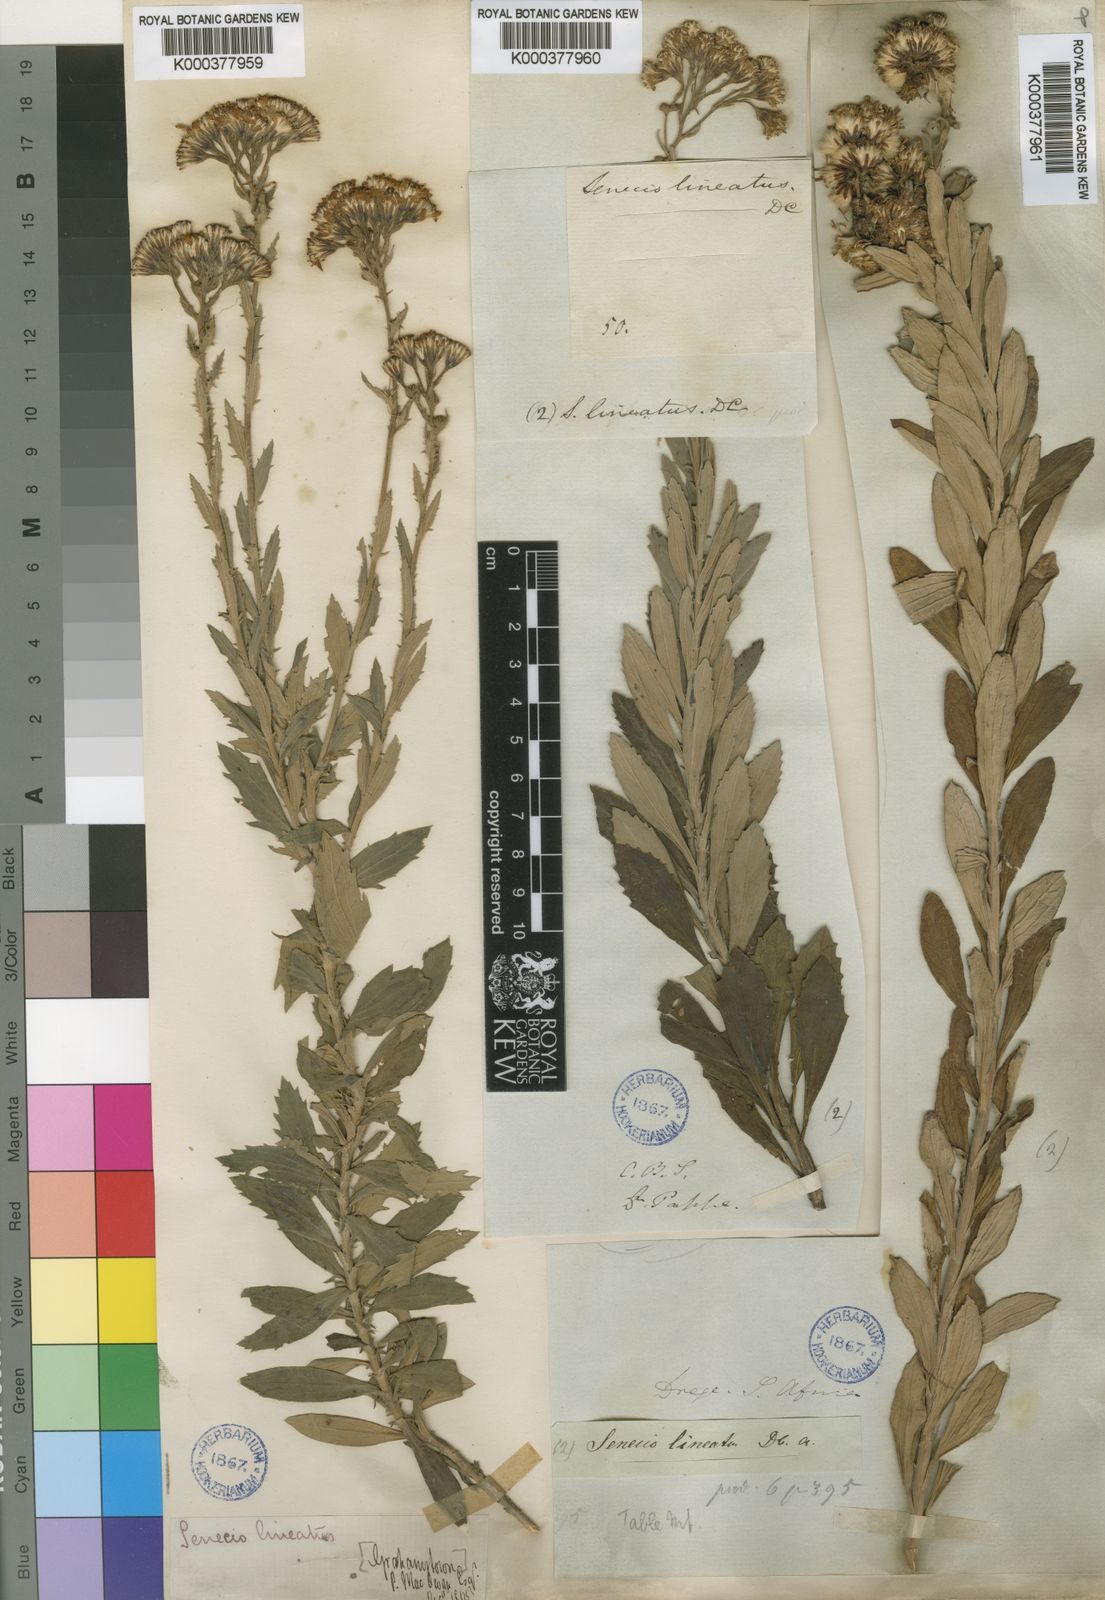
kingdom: Plantae
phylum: Tracheophyta
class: Magnoliopsida
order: Asterales
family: Asteraceae
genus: Senecio
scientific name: Senecio lineatus
